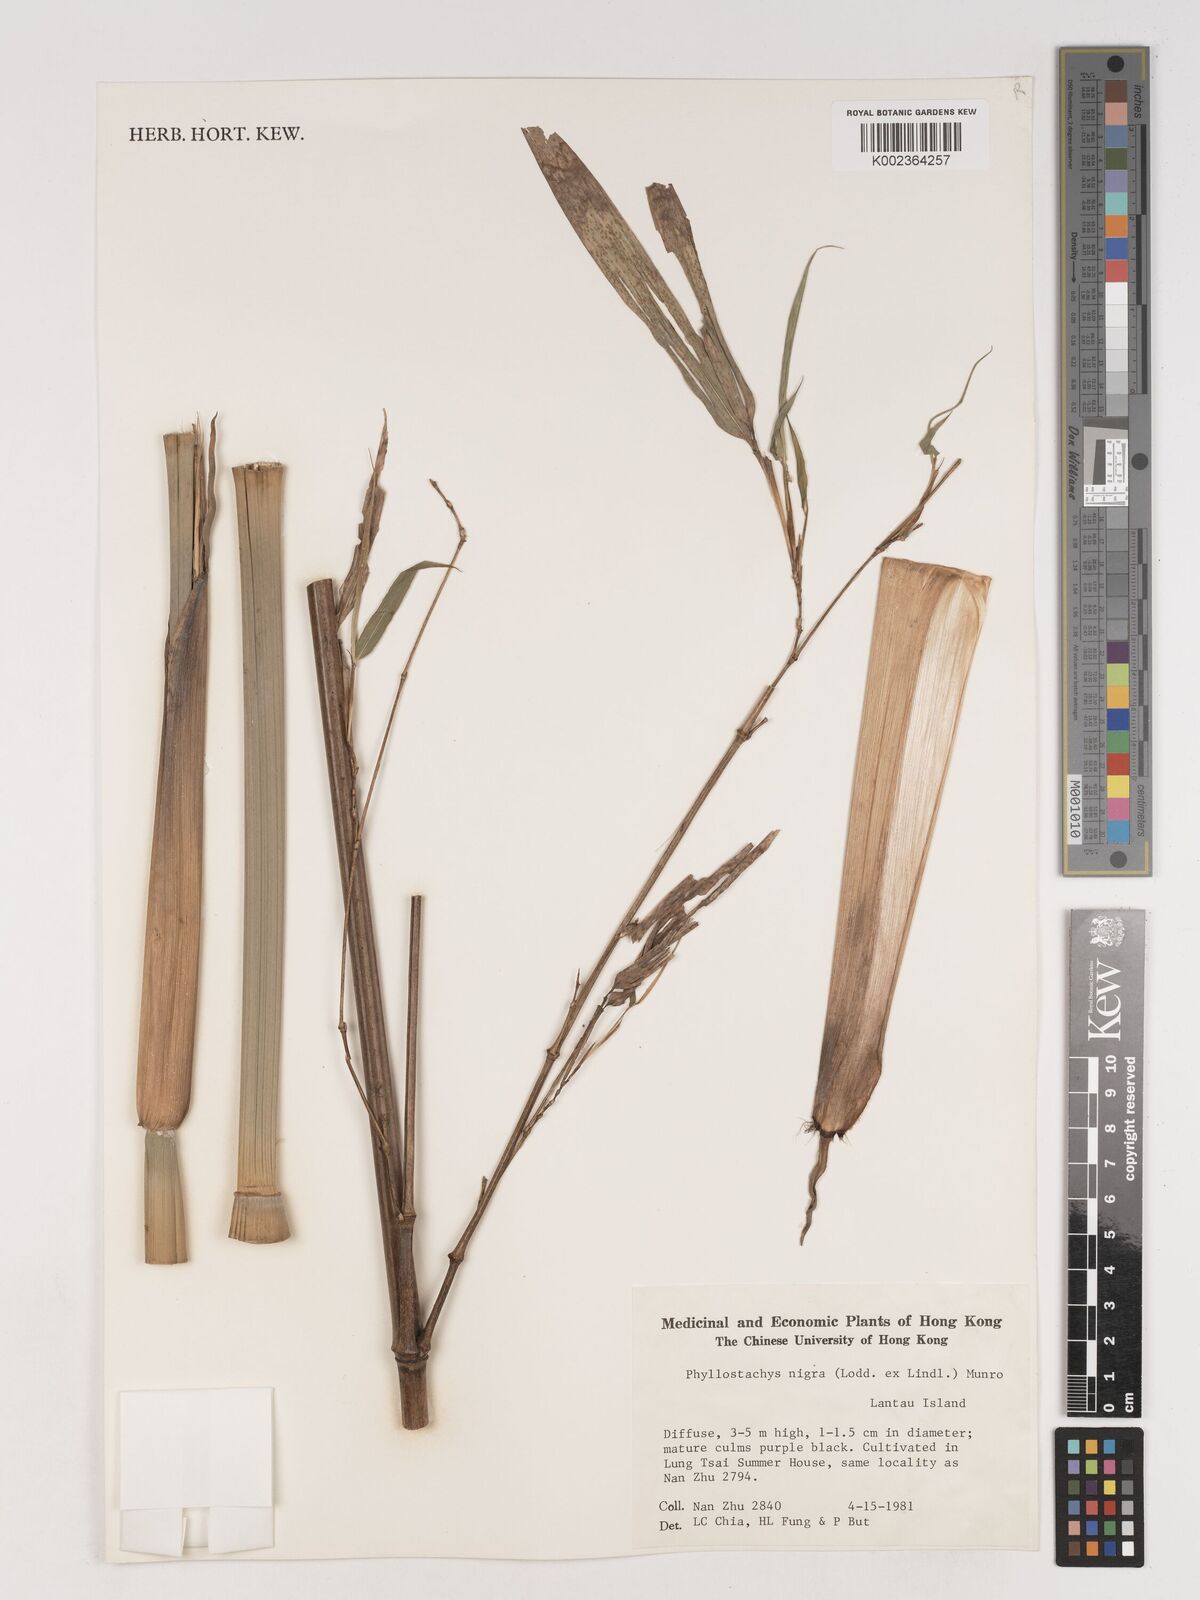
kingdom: Plantae
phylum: Tracheophyta
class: Liliopsida
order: Poales
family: Poaceae
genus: Phyllostachys
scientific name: Phyllostachys nigra
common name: Black bamboo
